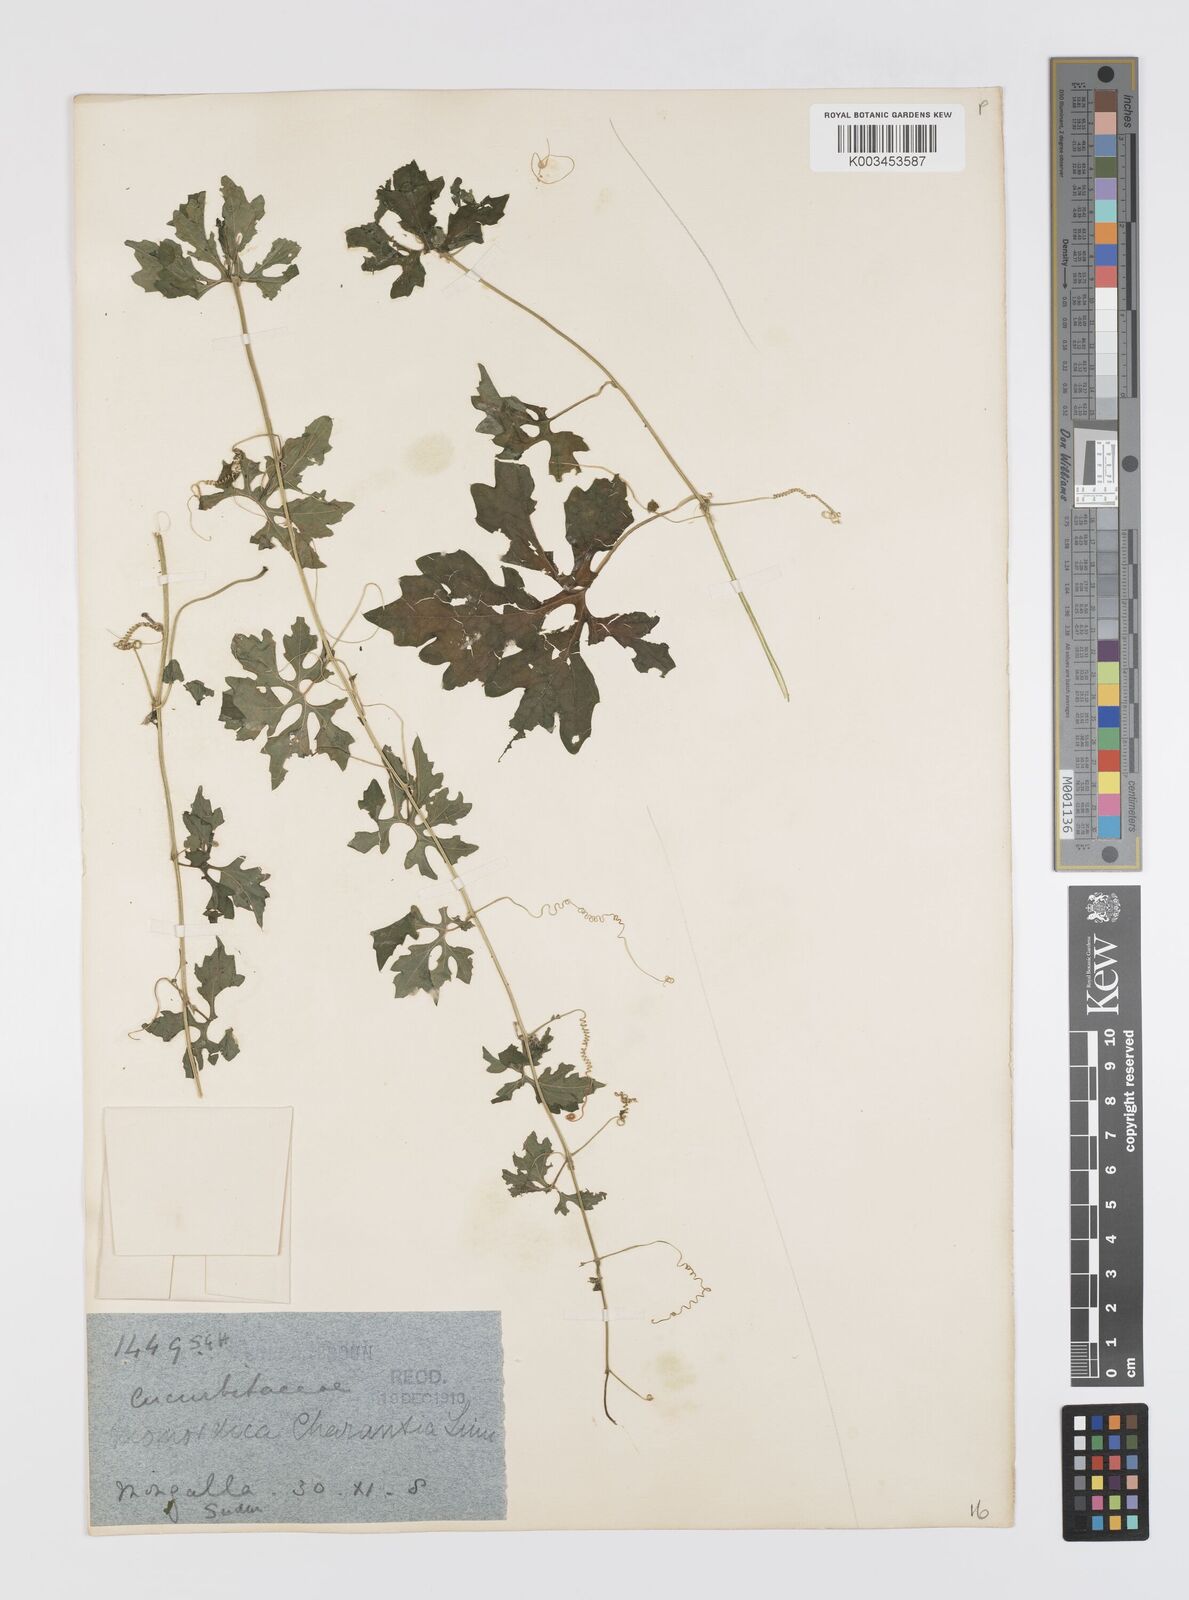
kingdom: Plantae
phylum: Tracheophyta
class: Magnoliopsida
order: Cucurbitales
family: Cucurbitaceae
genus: Momordica
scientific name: Momordica charantia
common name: Balsampear
